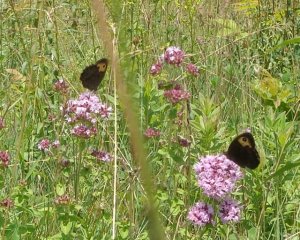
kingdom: Animalia
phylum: Arthropoda
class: Insecta
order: Lepidoptera
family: Nymphalidae
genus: Cercyonis
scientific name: Cercyonis pegala
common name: Common Wood-Nymph
